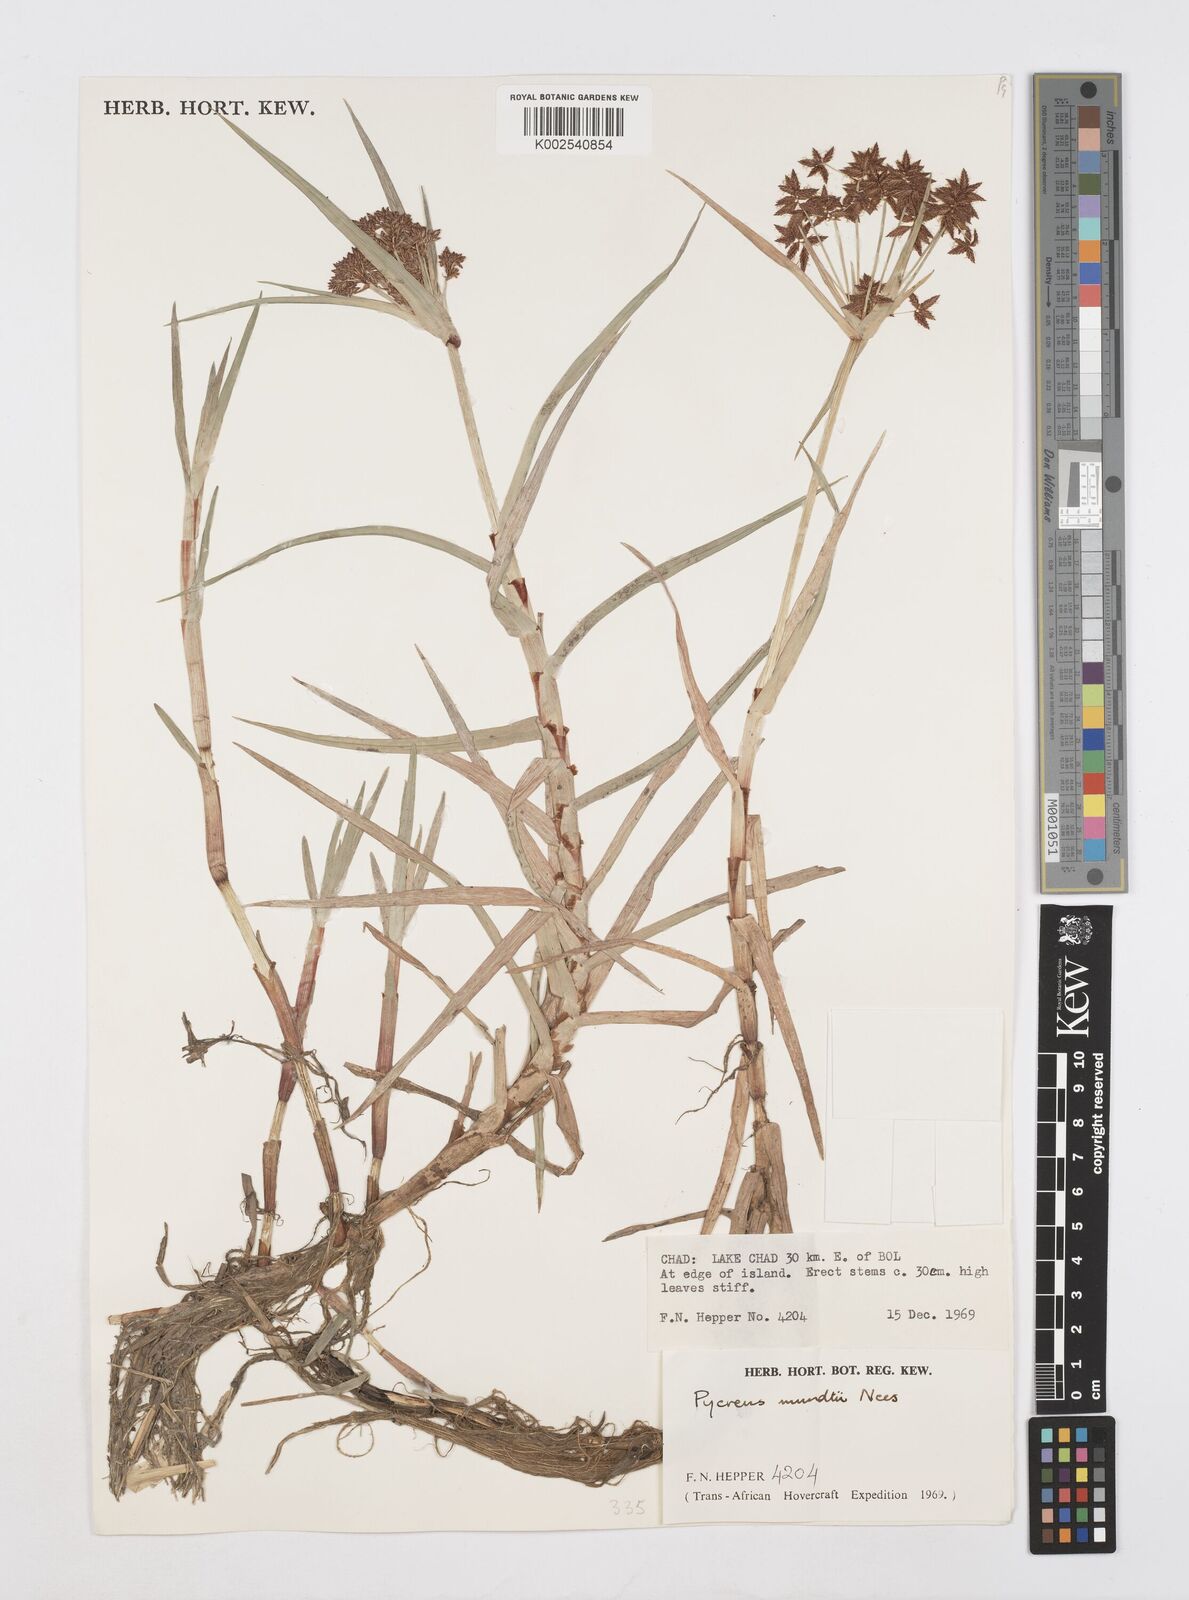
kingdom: Plantae
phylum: Tracheophyta
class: Liliopsida
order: Poales
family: Cyperaceae
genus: Cyperus
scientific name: Cyperus mundii
